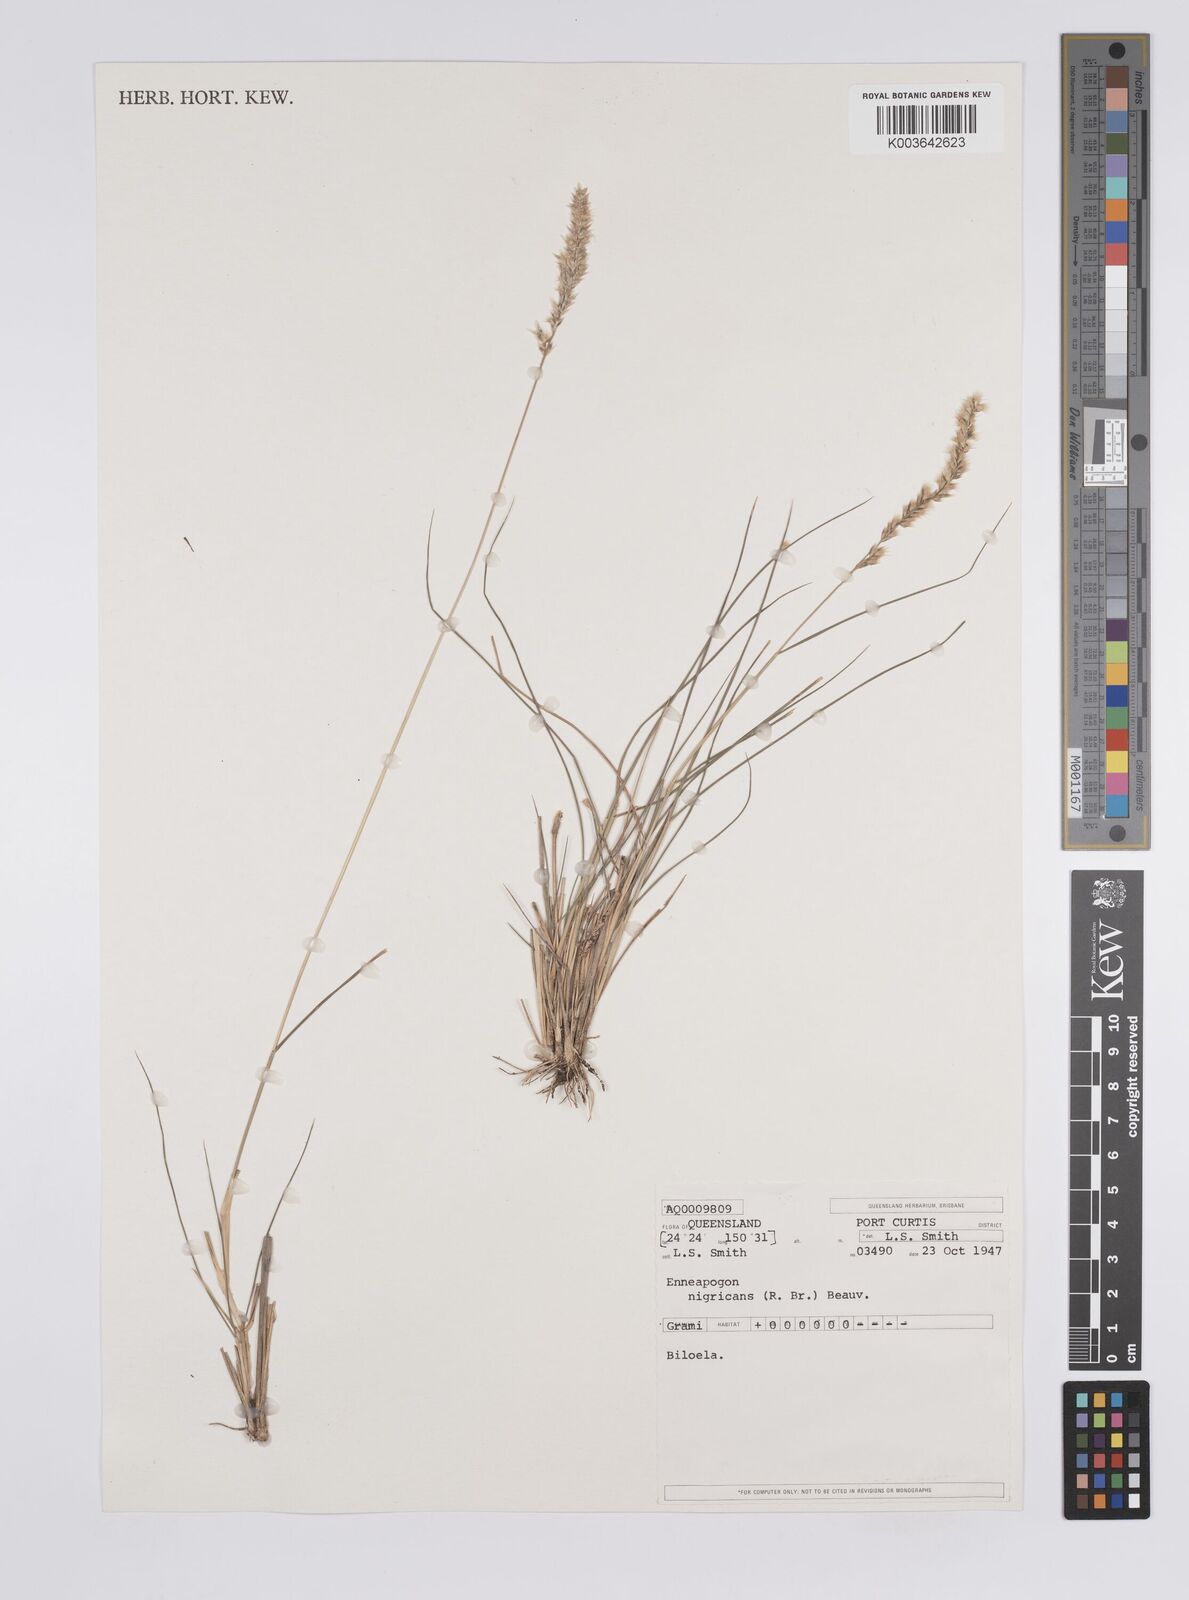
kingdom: Plantae
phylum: Tracheophyta
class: Liliopsida
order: Poales
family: Poaceae
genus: Enneapogon
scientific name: Enneapogon nigricans
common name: Pappus grass
